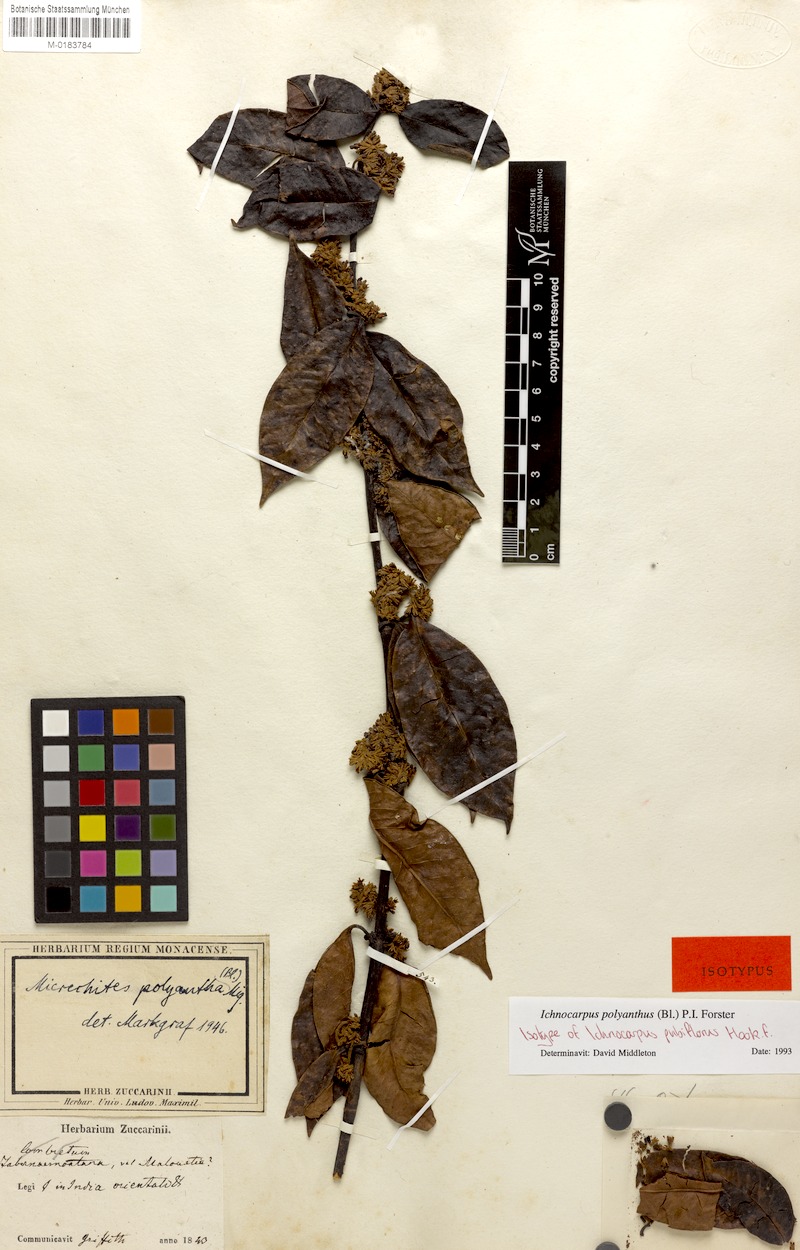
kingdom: Plantae
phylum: Tracheophyta
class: Magnoliopsida
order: Gentianales
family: Apocynaceae
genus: Micrechites
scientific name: Micrechites polyantha
